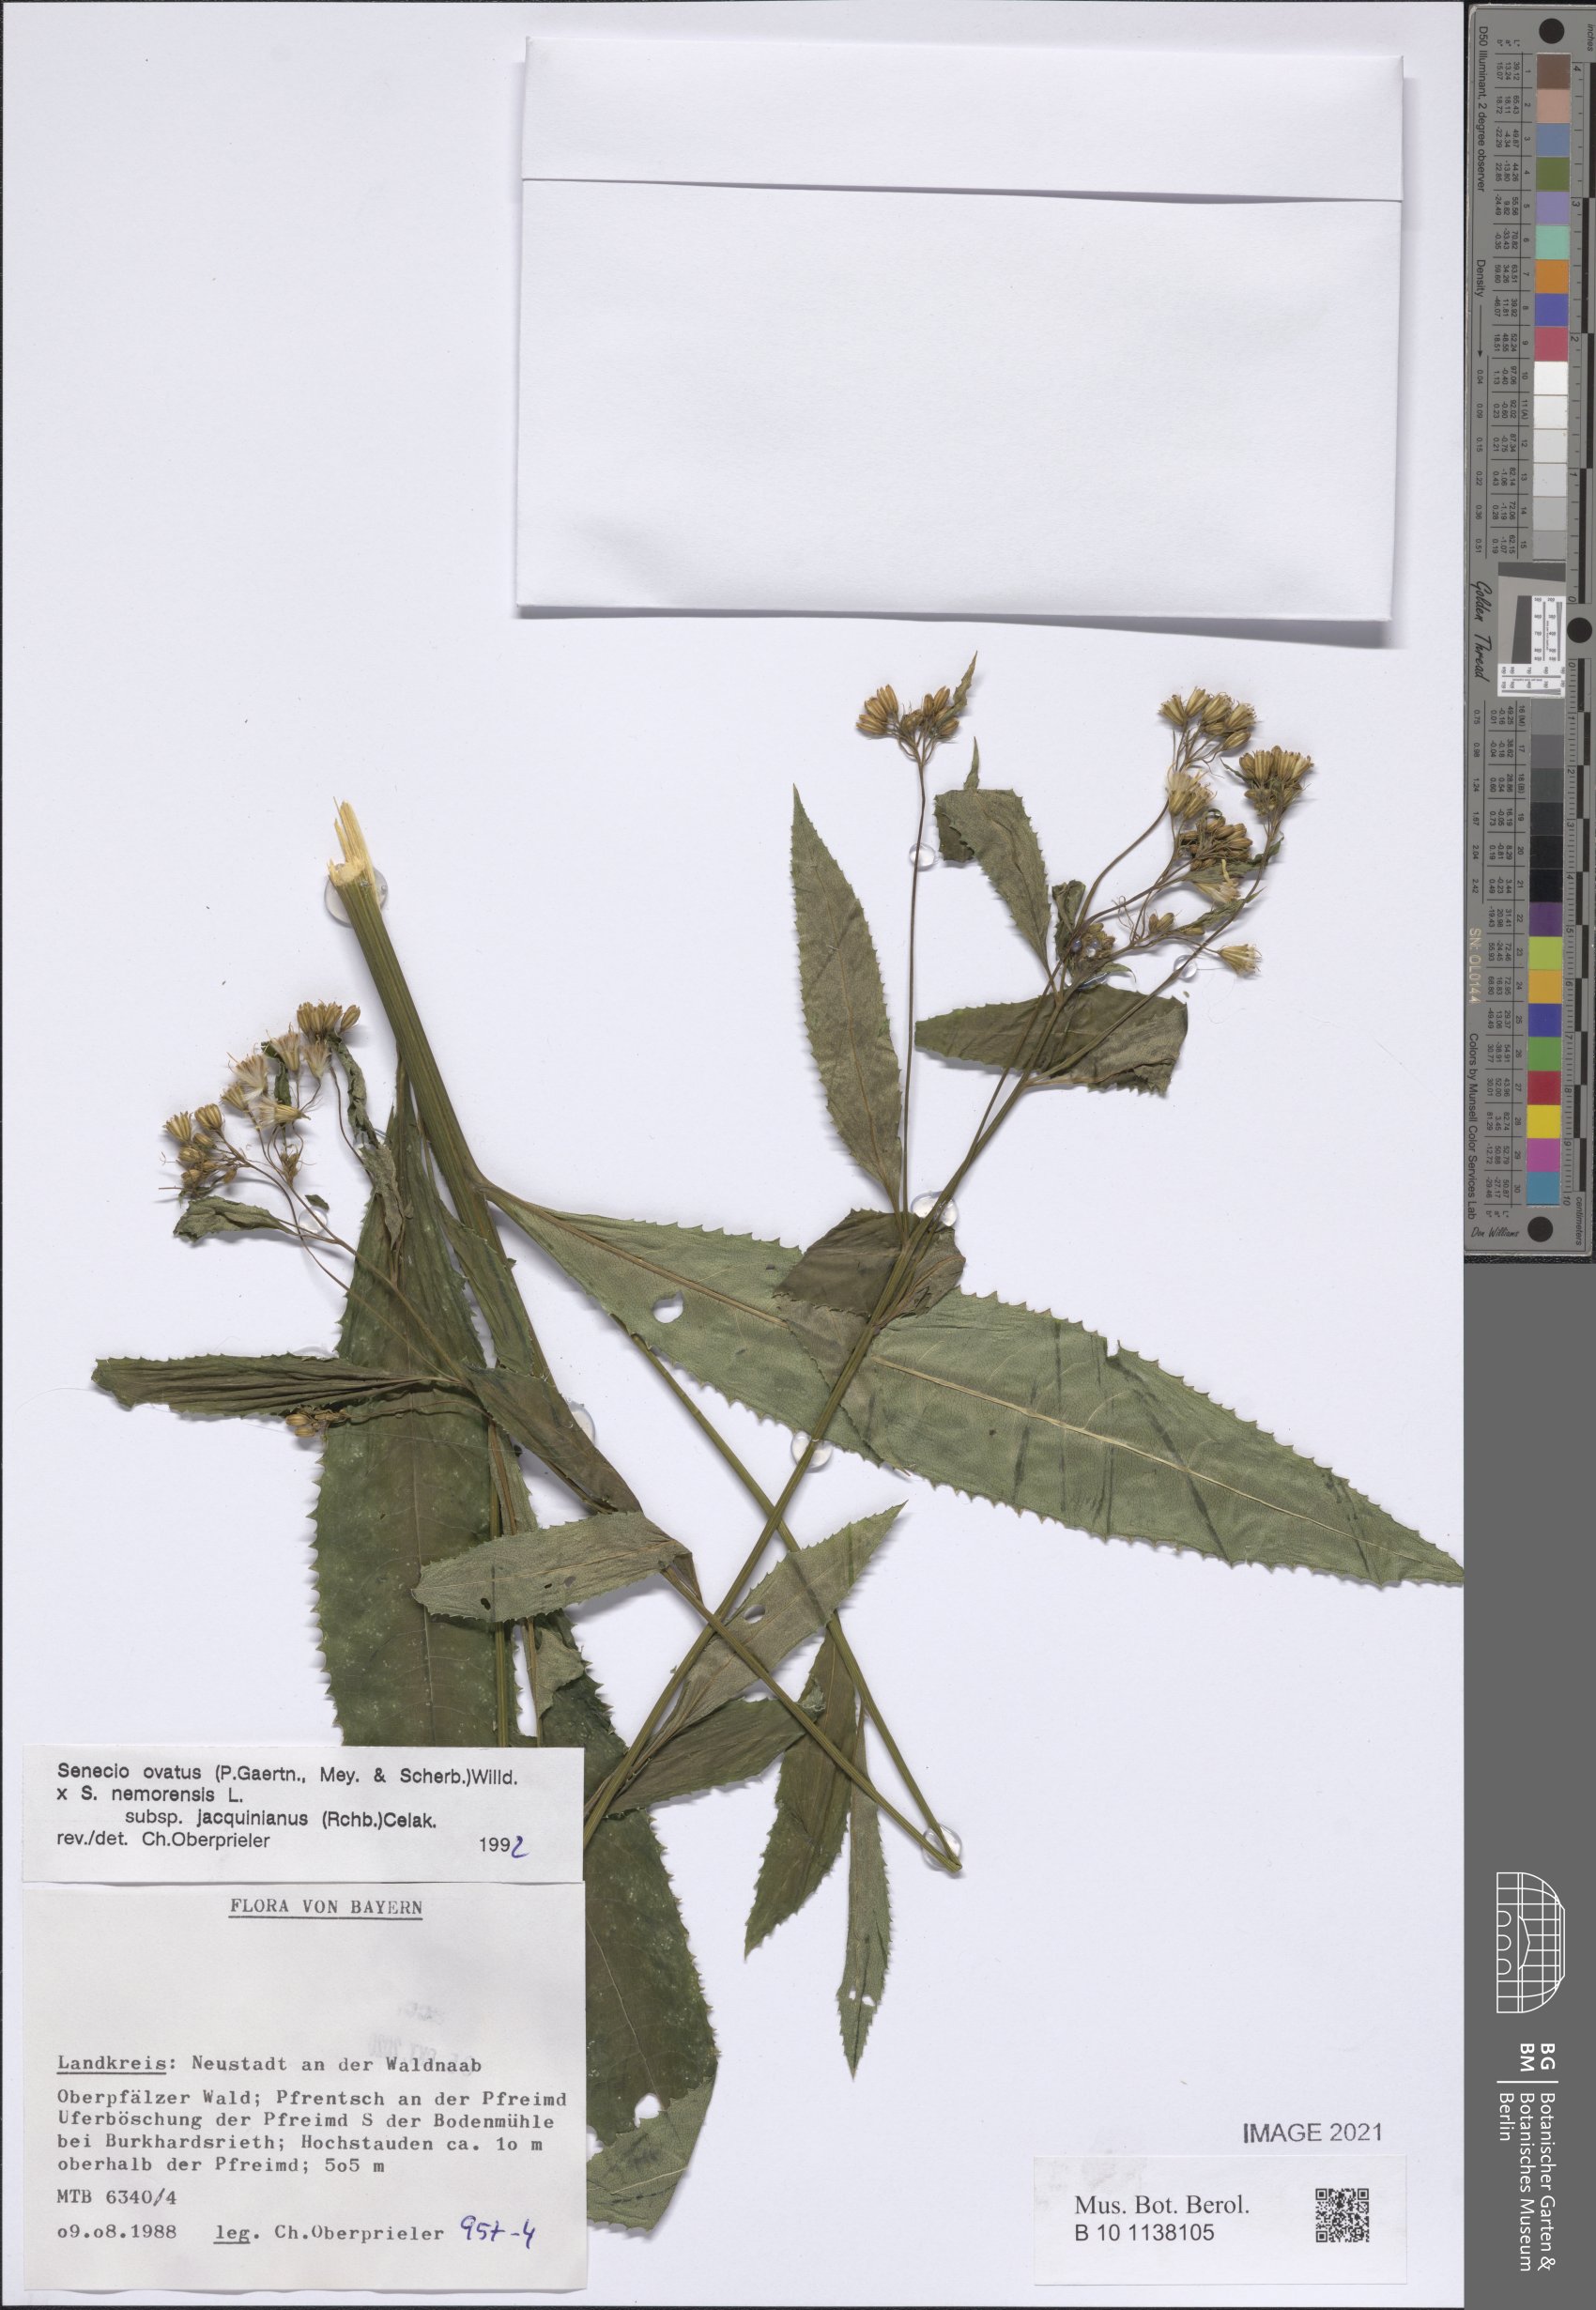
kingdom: Plantae
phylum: Tracheophyta
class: Magnoliopsida
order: Asterales
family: Asteraceae
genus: Senecio
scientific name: Senecio ovatus
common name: Wood ragwort
